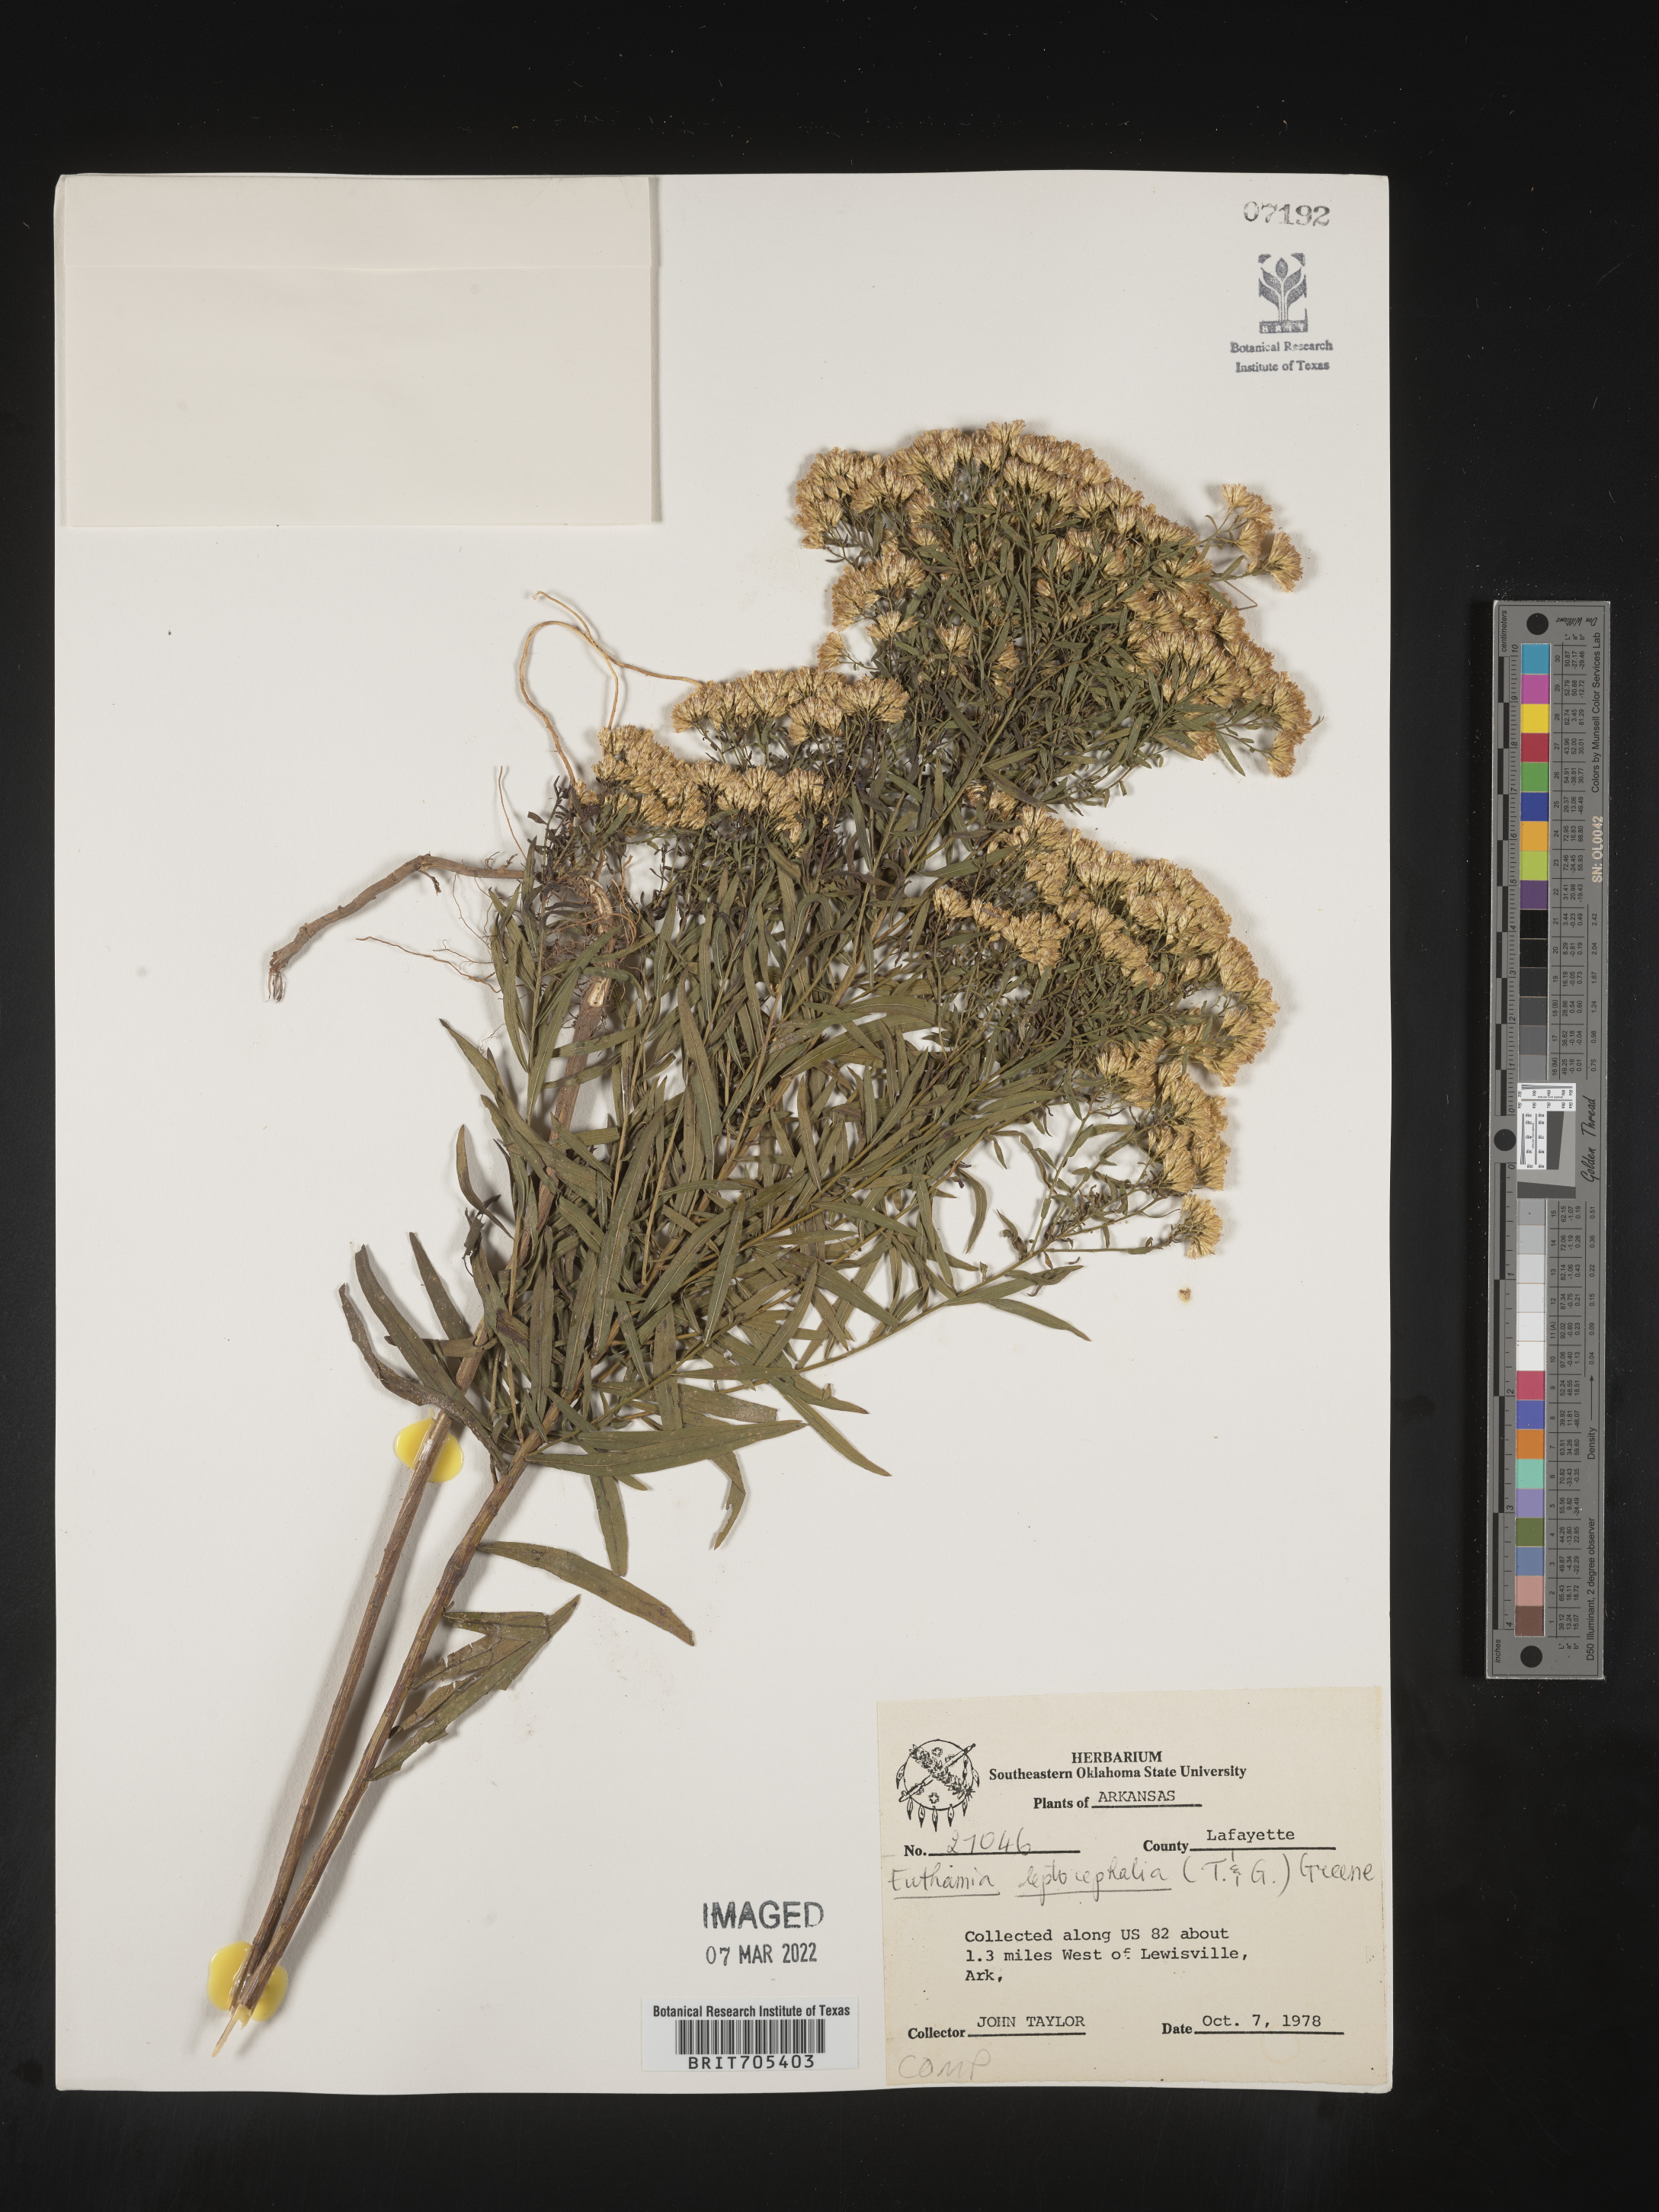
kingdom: Plantae
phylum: Tracheophyta
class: Magnoliopsida
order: Asterales
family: Asteraceae
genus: Euthamia
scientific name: Euthamia leptocephala
